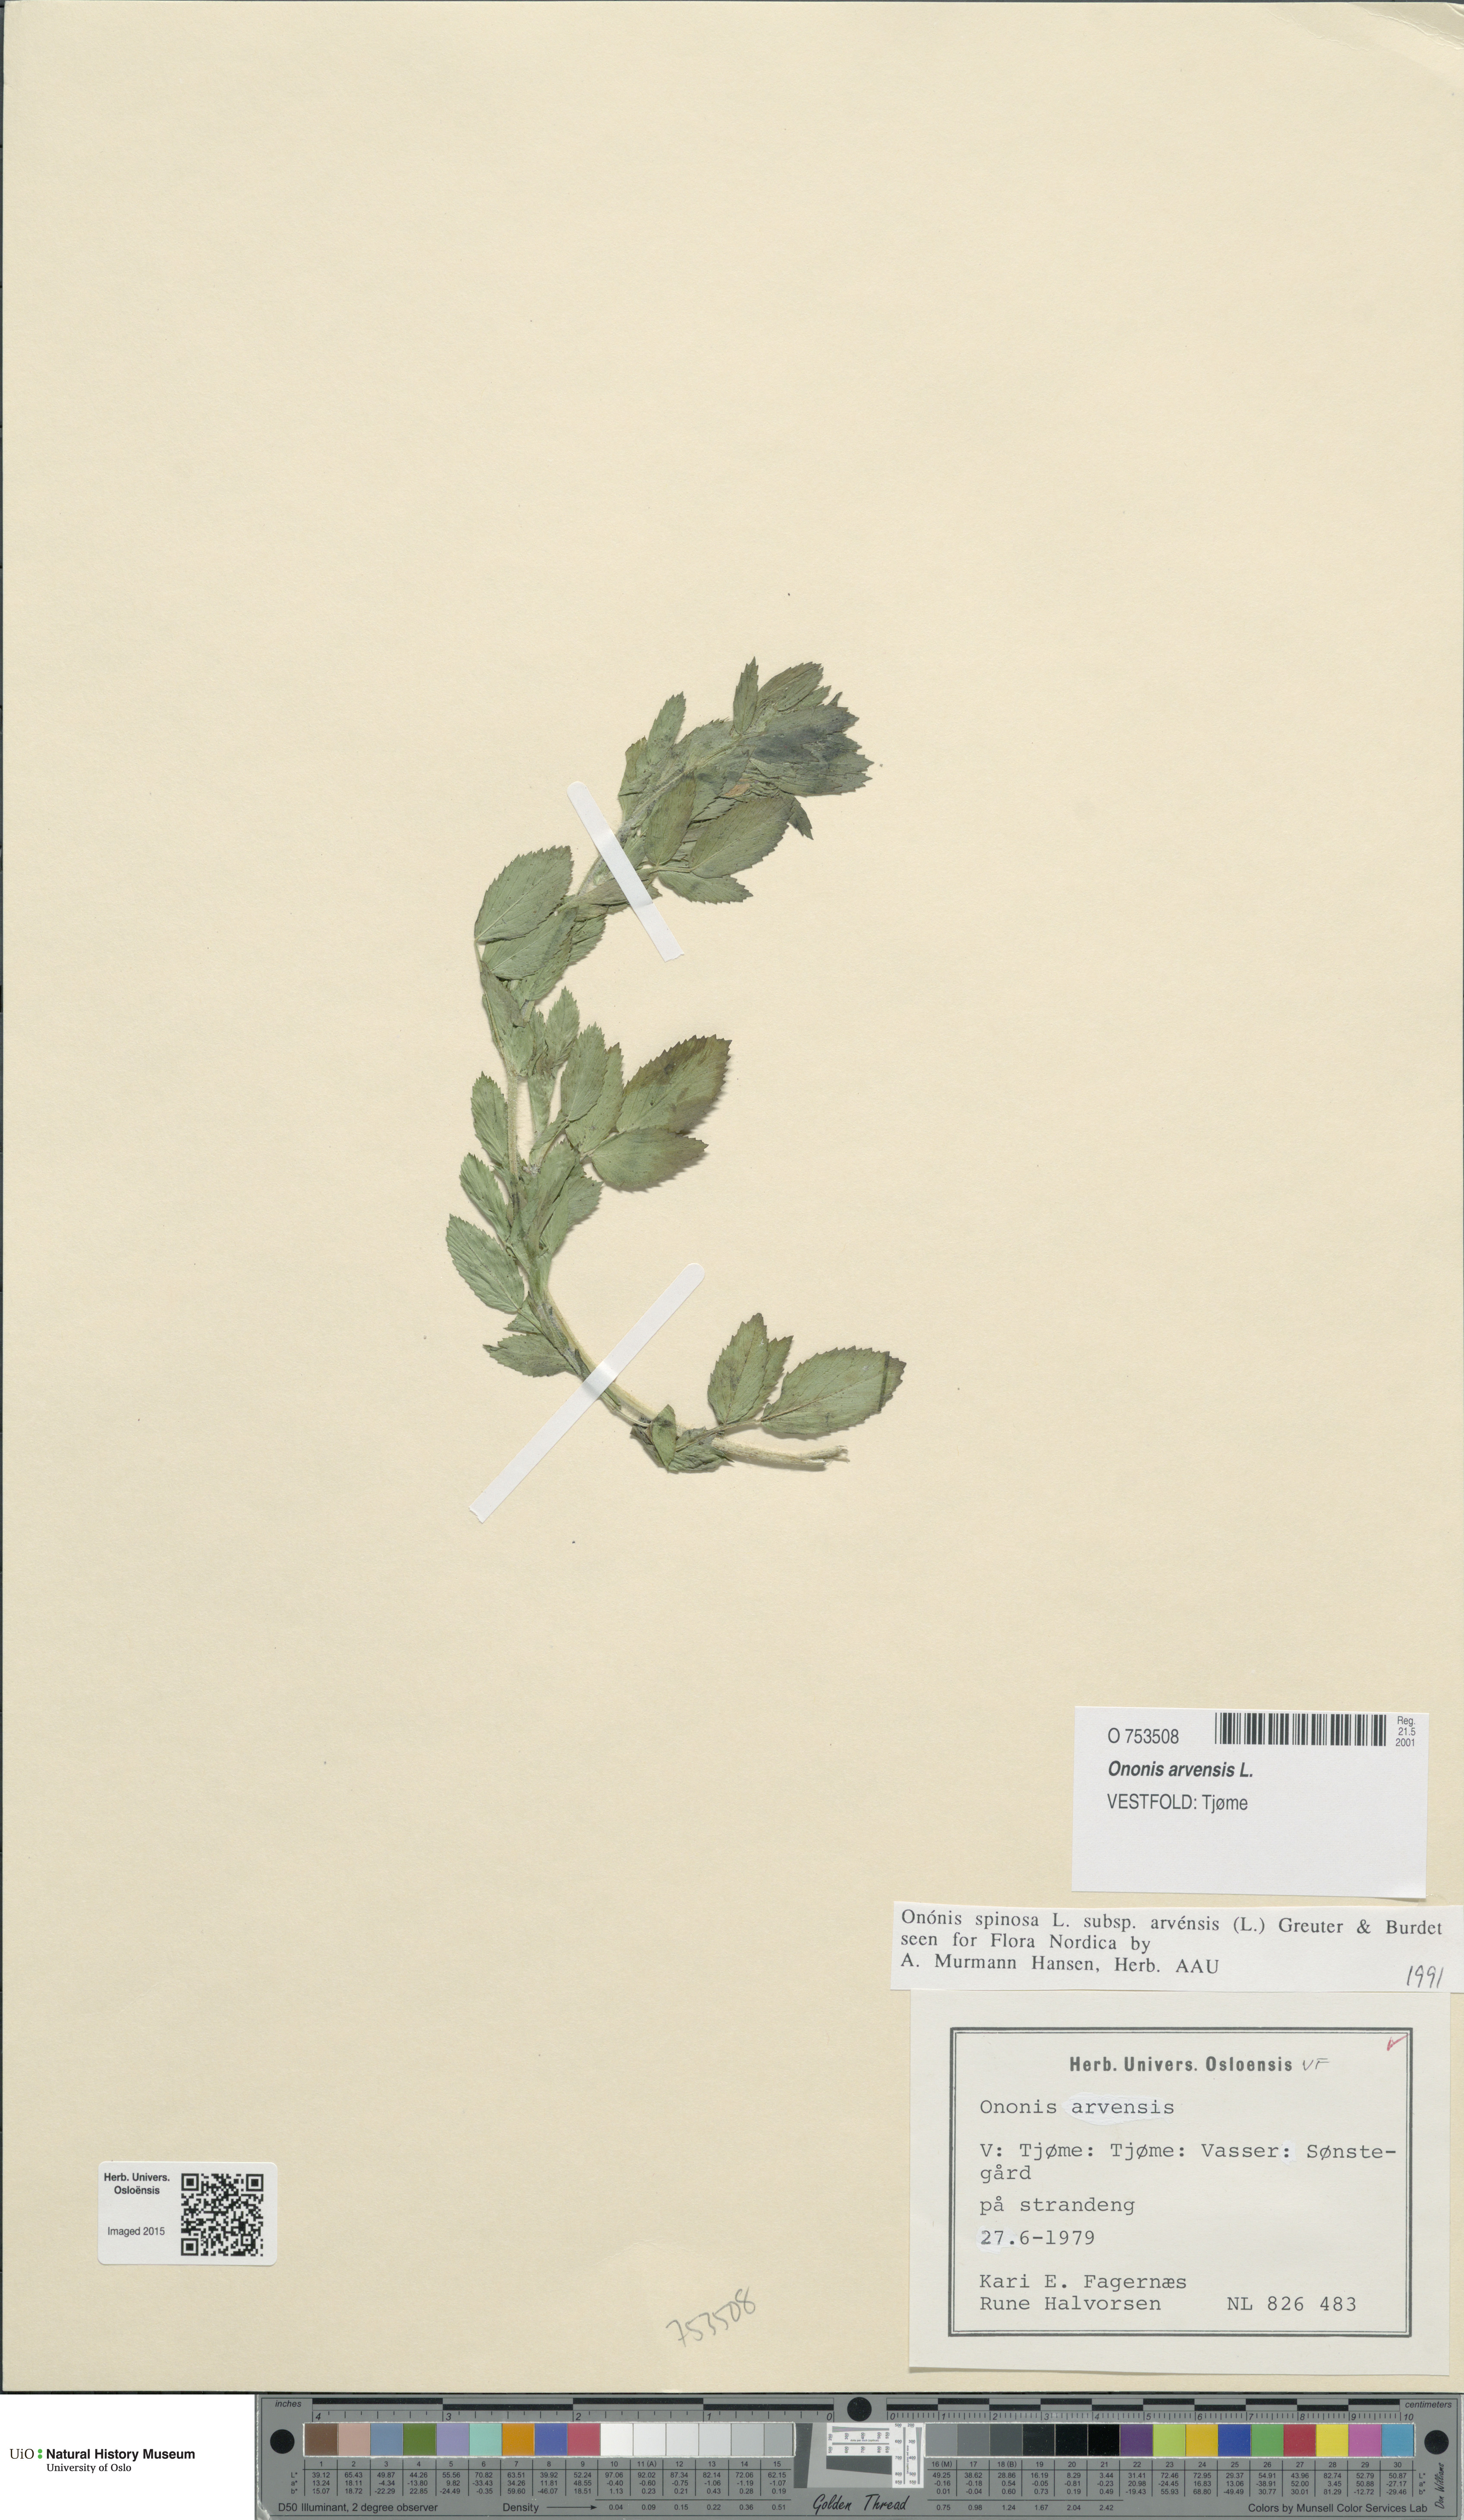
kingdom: Plantae
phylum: Tracheophyta
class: Magnoliopsida
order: Fabales
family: Fabaceae
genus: Ononis
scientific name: Ononis arvensis
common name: Field restharrow
